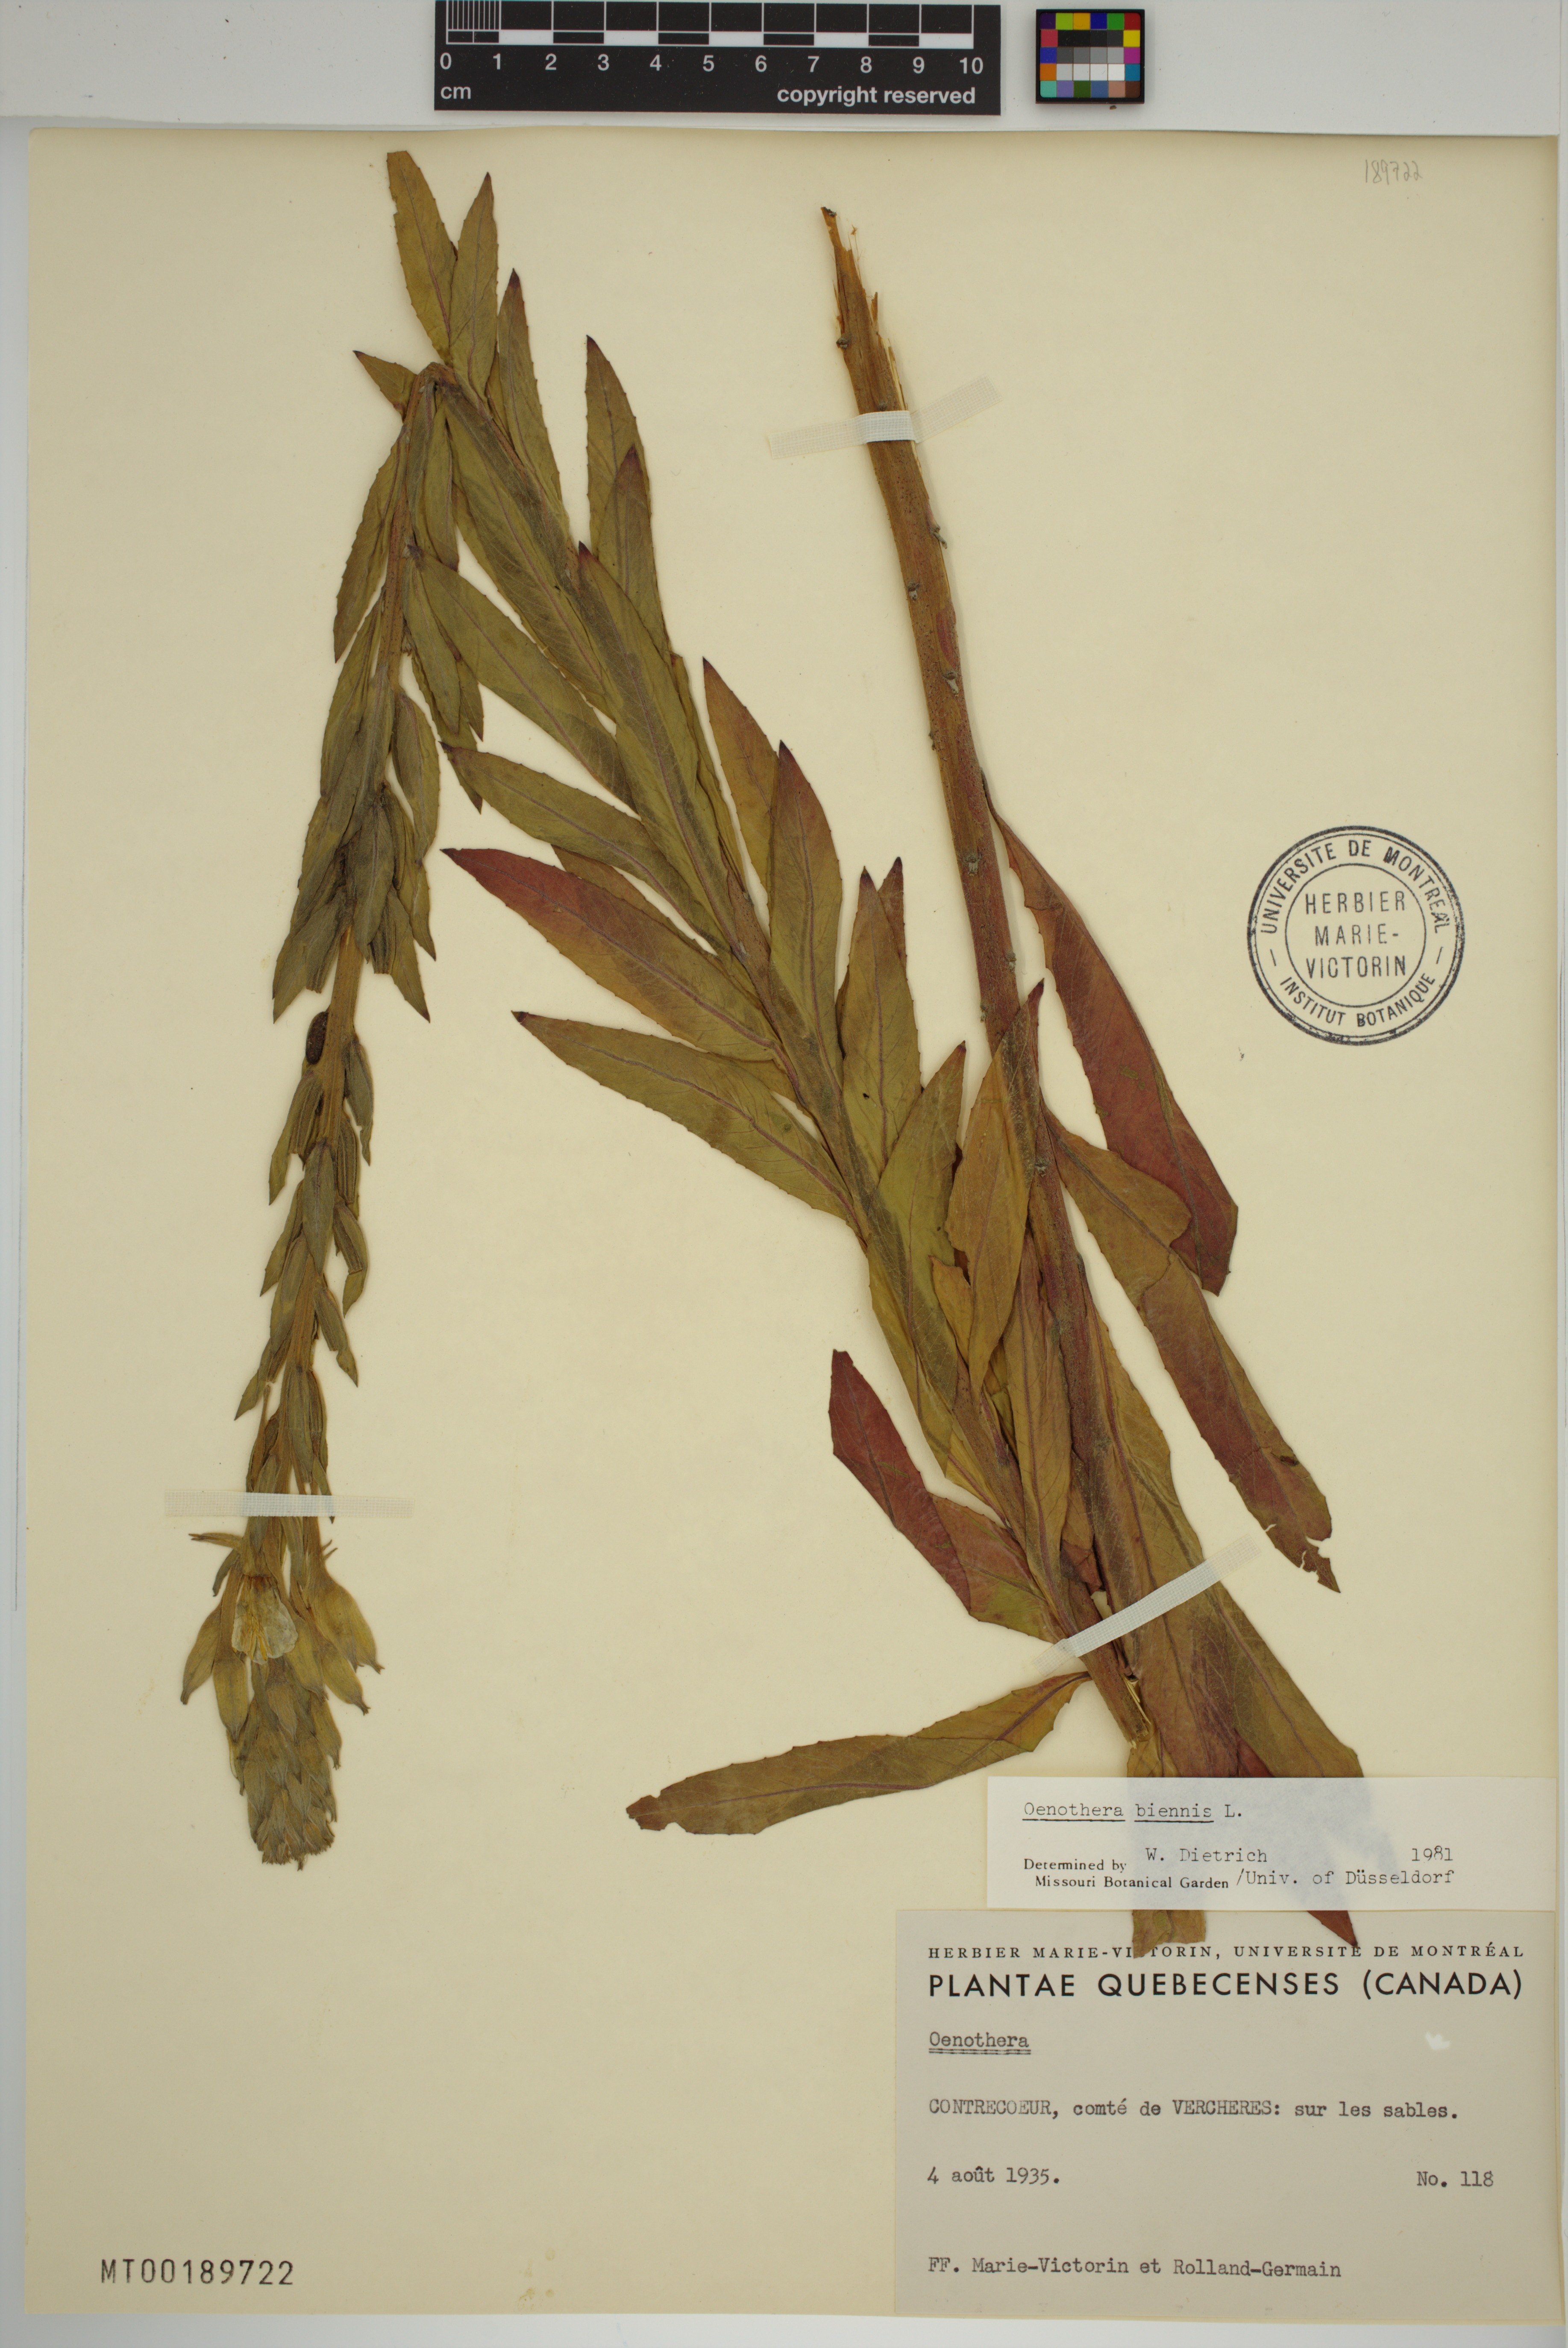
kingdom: Plantae
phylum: Tracheophyta
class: Magnoliopsida
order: Myrtales
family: Onagraceae
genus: Oenothera
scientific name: Oenothera biennis
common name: Common evening-primrose
